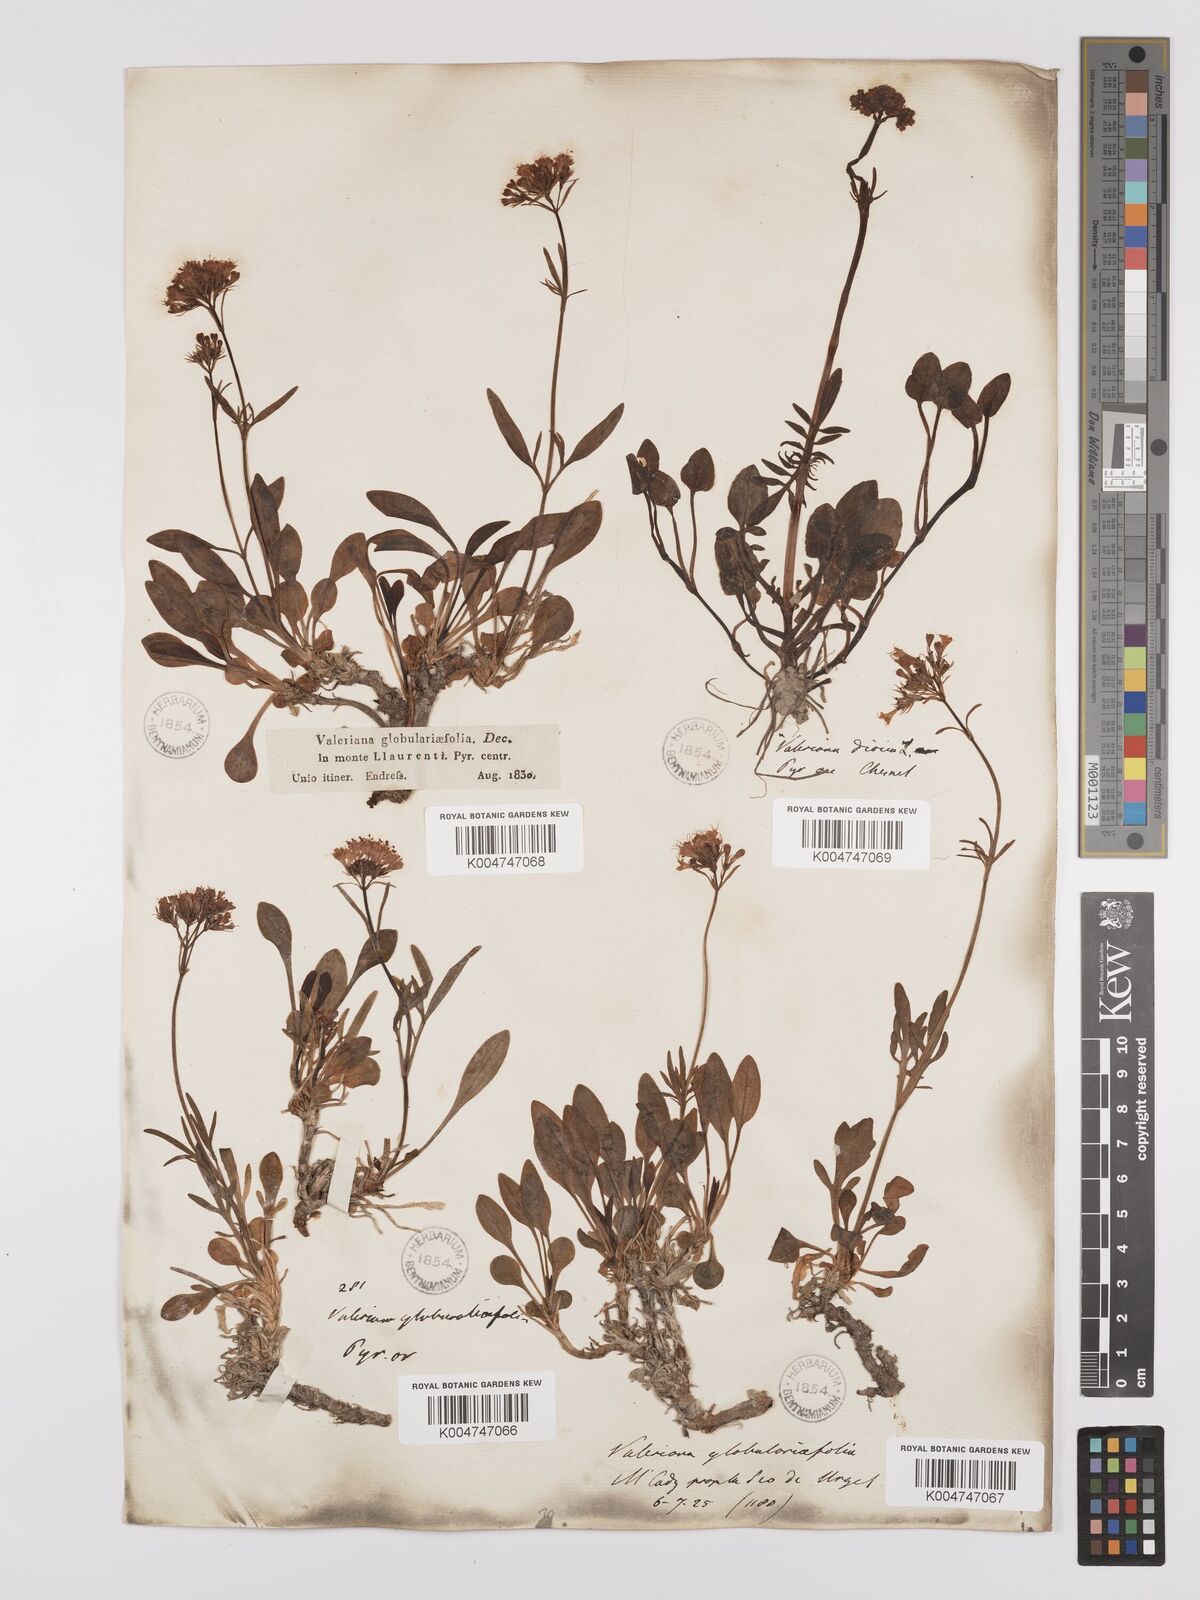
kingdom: Plantae
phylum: Tracheophyta
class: Magnoliopsida
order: Dipsacales
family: Caprifoliaceae
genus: Valeriana
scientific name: Valeriana apula
